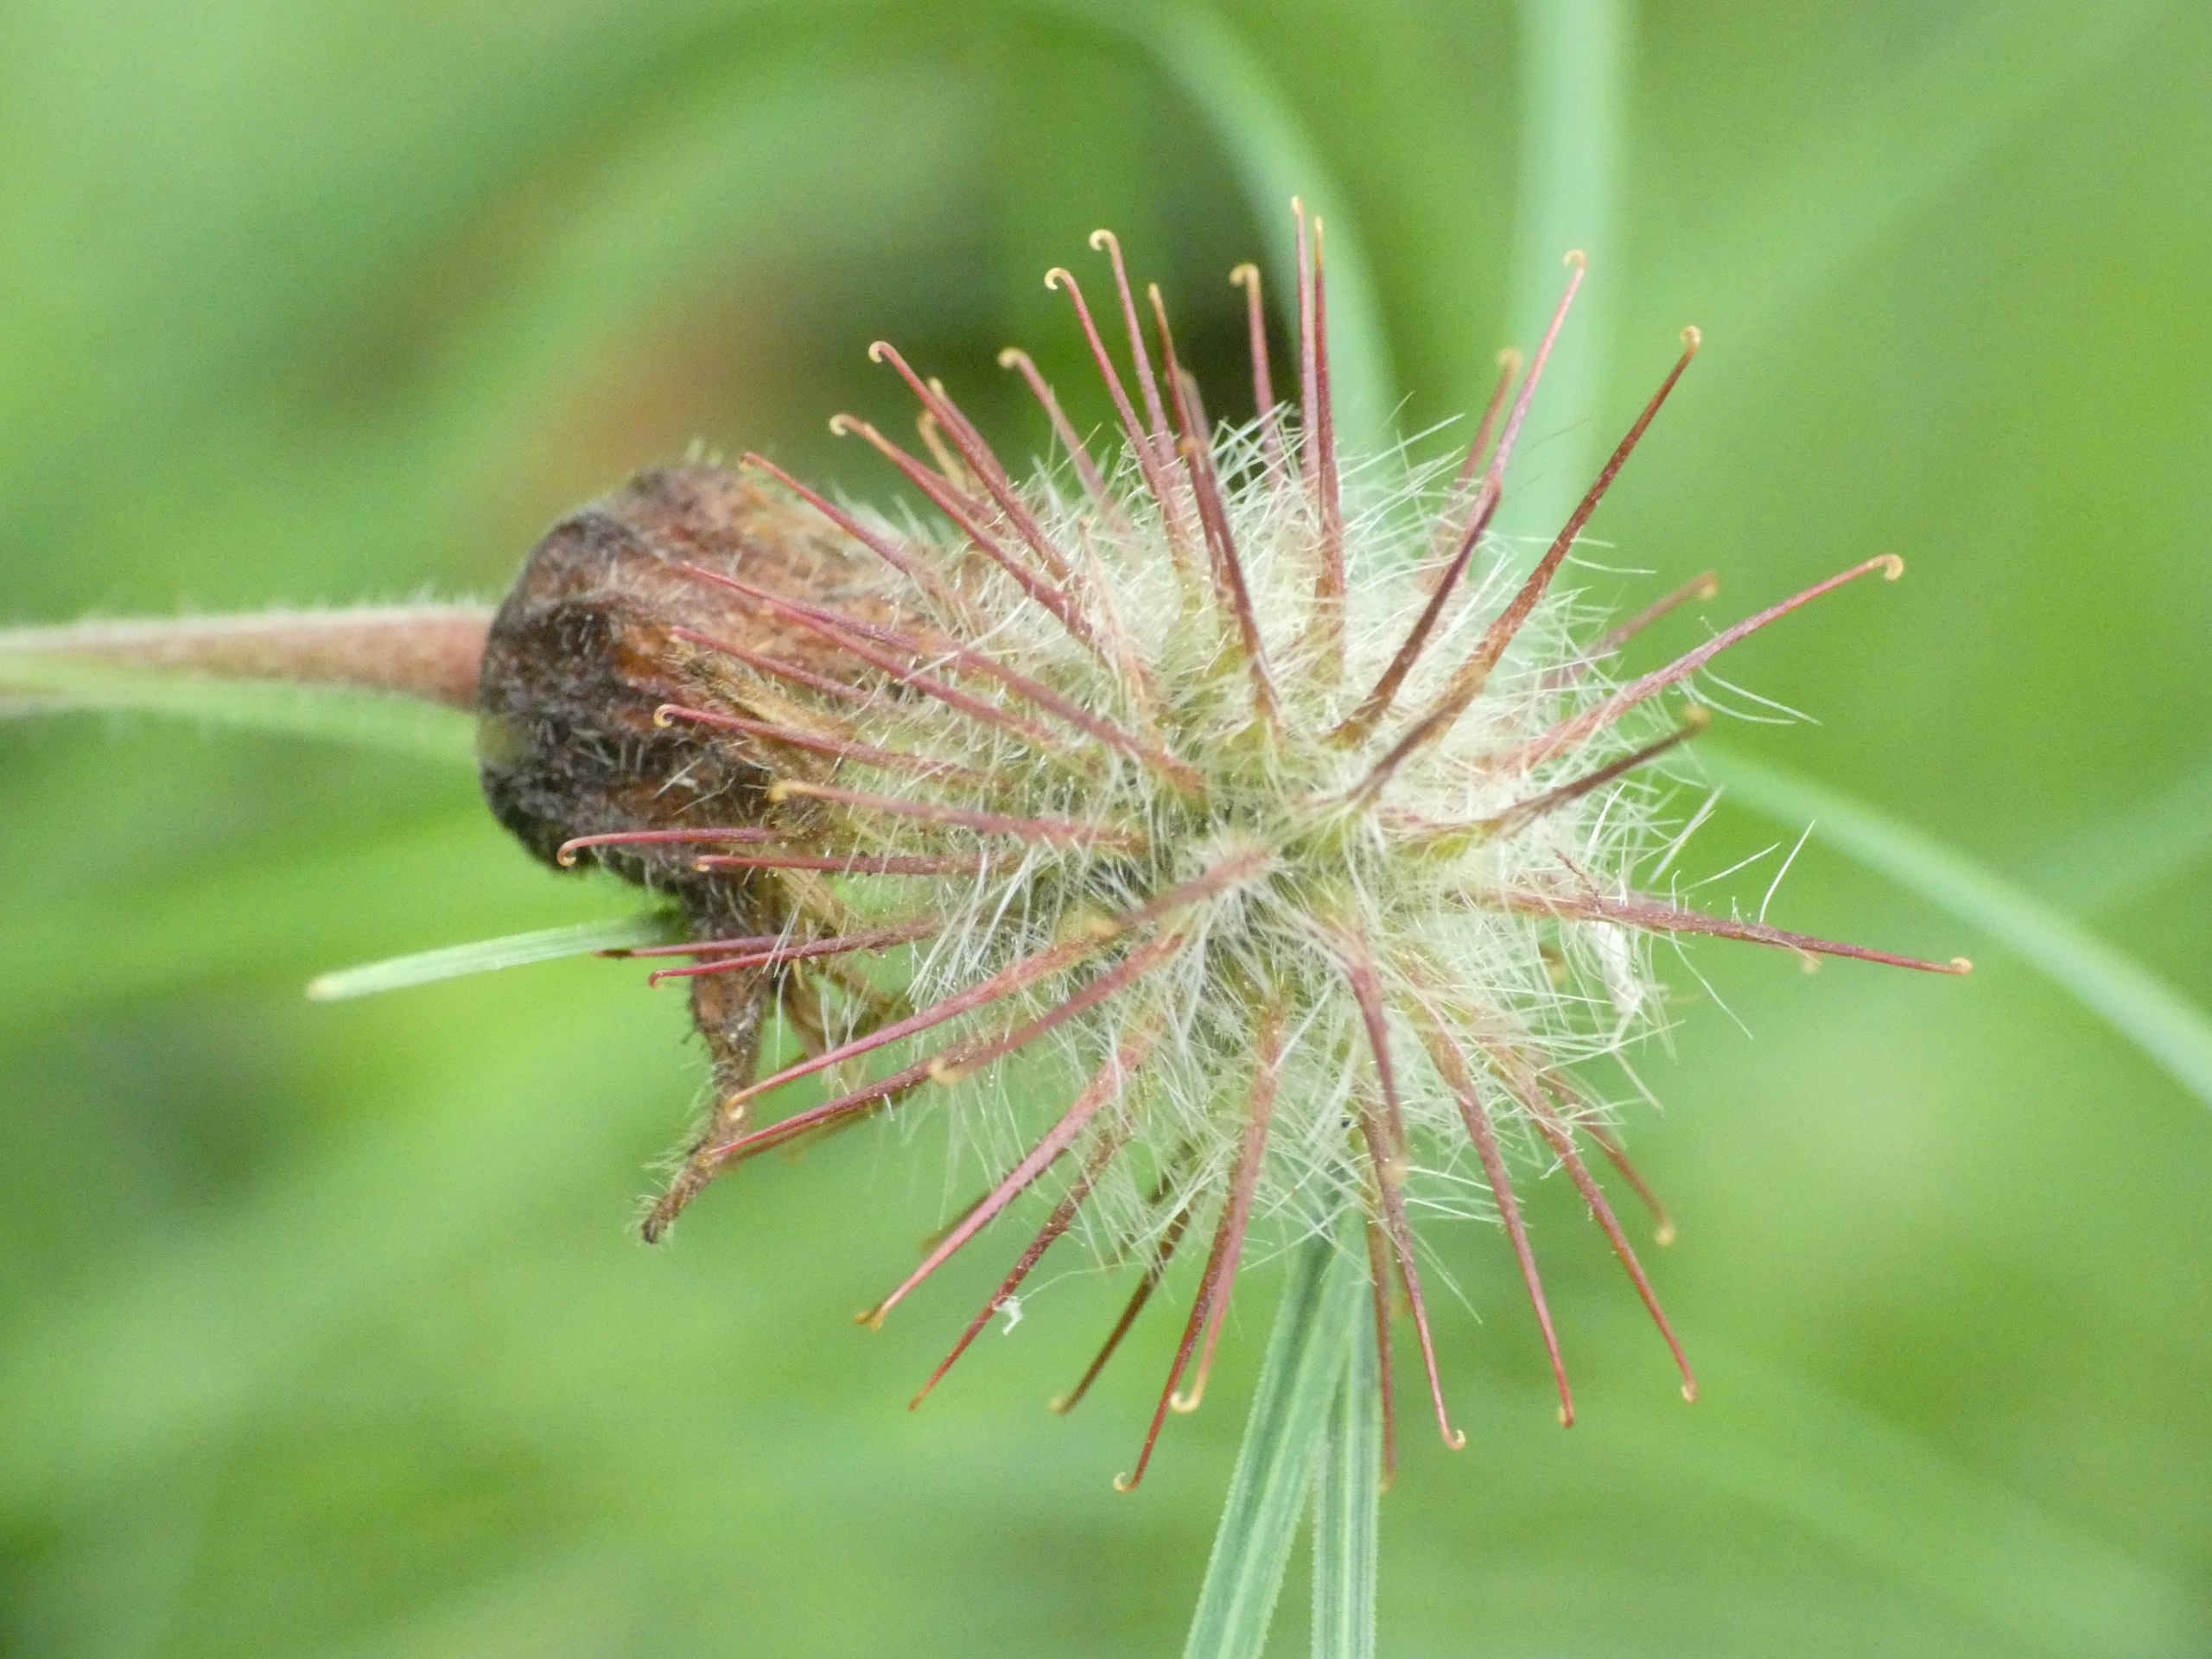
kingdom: Plantae
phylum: Tracheophyta
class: Magnoliopsida
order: Rosales
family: Rosaceae
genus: Geum
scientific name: Geum rivale
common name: Eng-nellikerod
